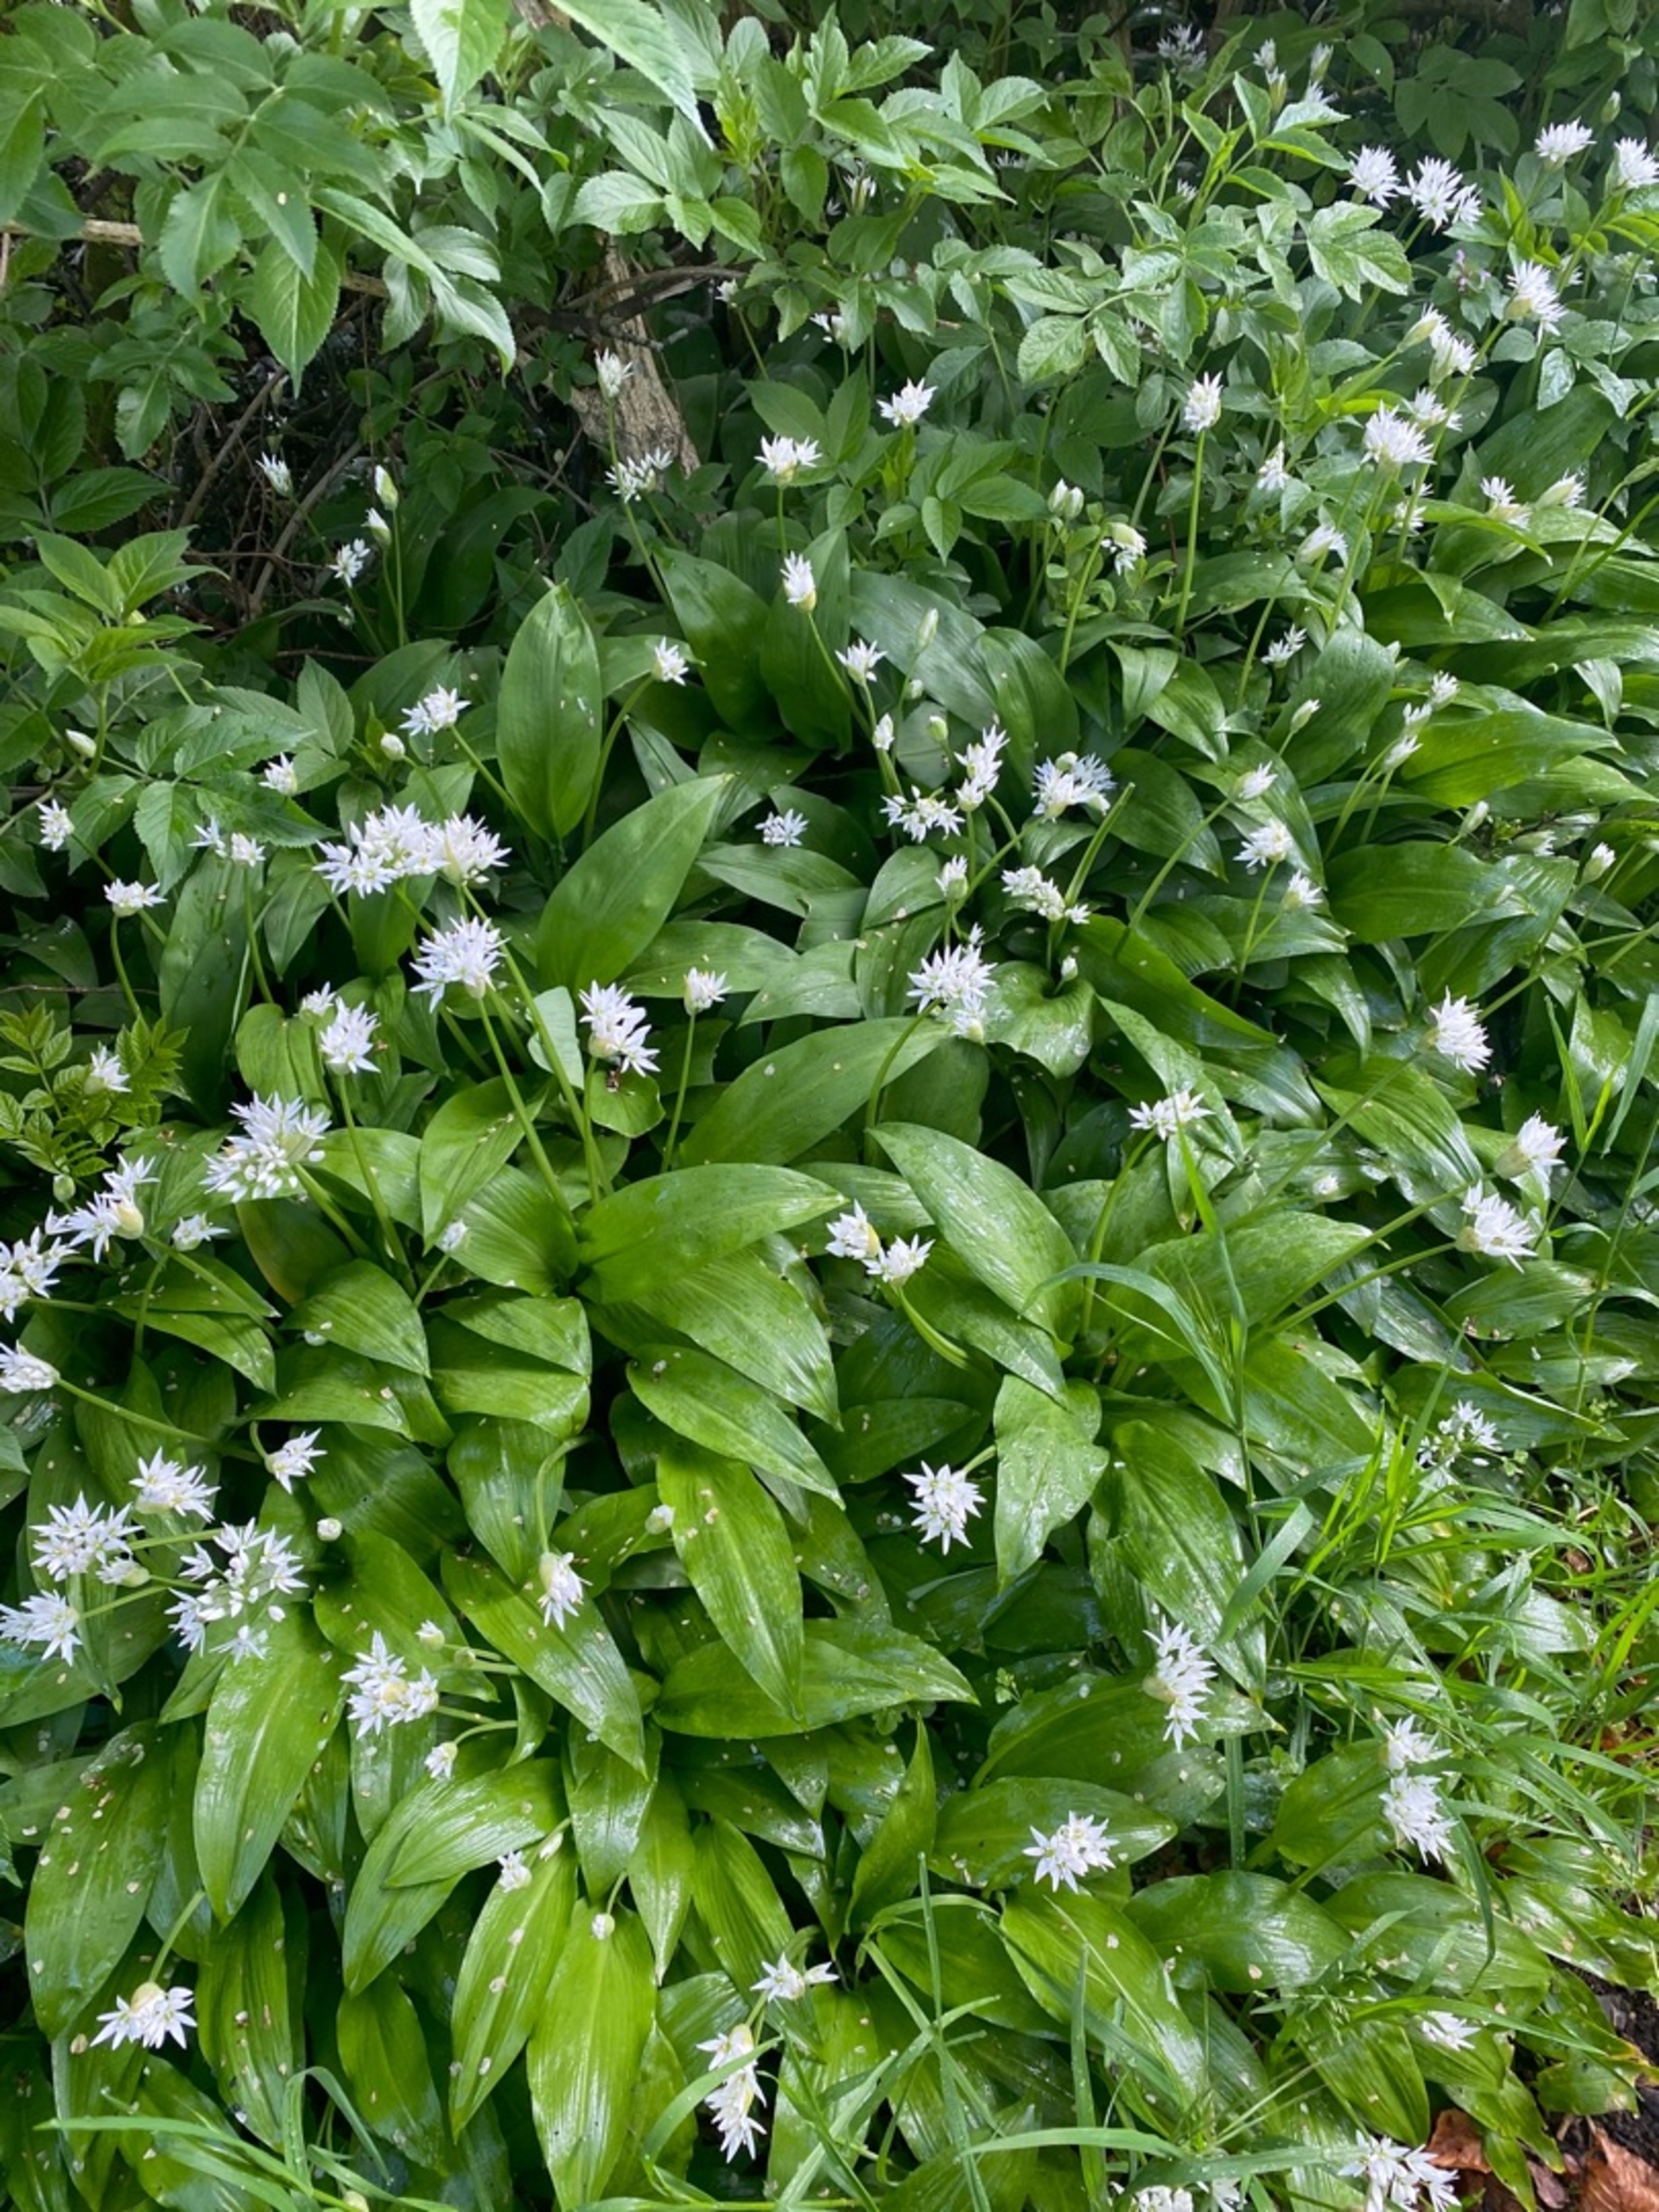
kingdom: Plantae
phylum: Tracheophyta
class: Liliopsida
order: Asparagales
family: Amaryllidaceae
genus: Allium
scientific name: Allium ursinum
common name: Rams-løg
